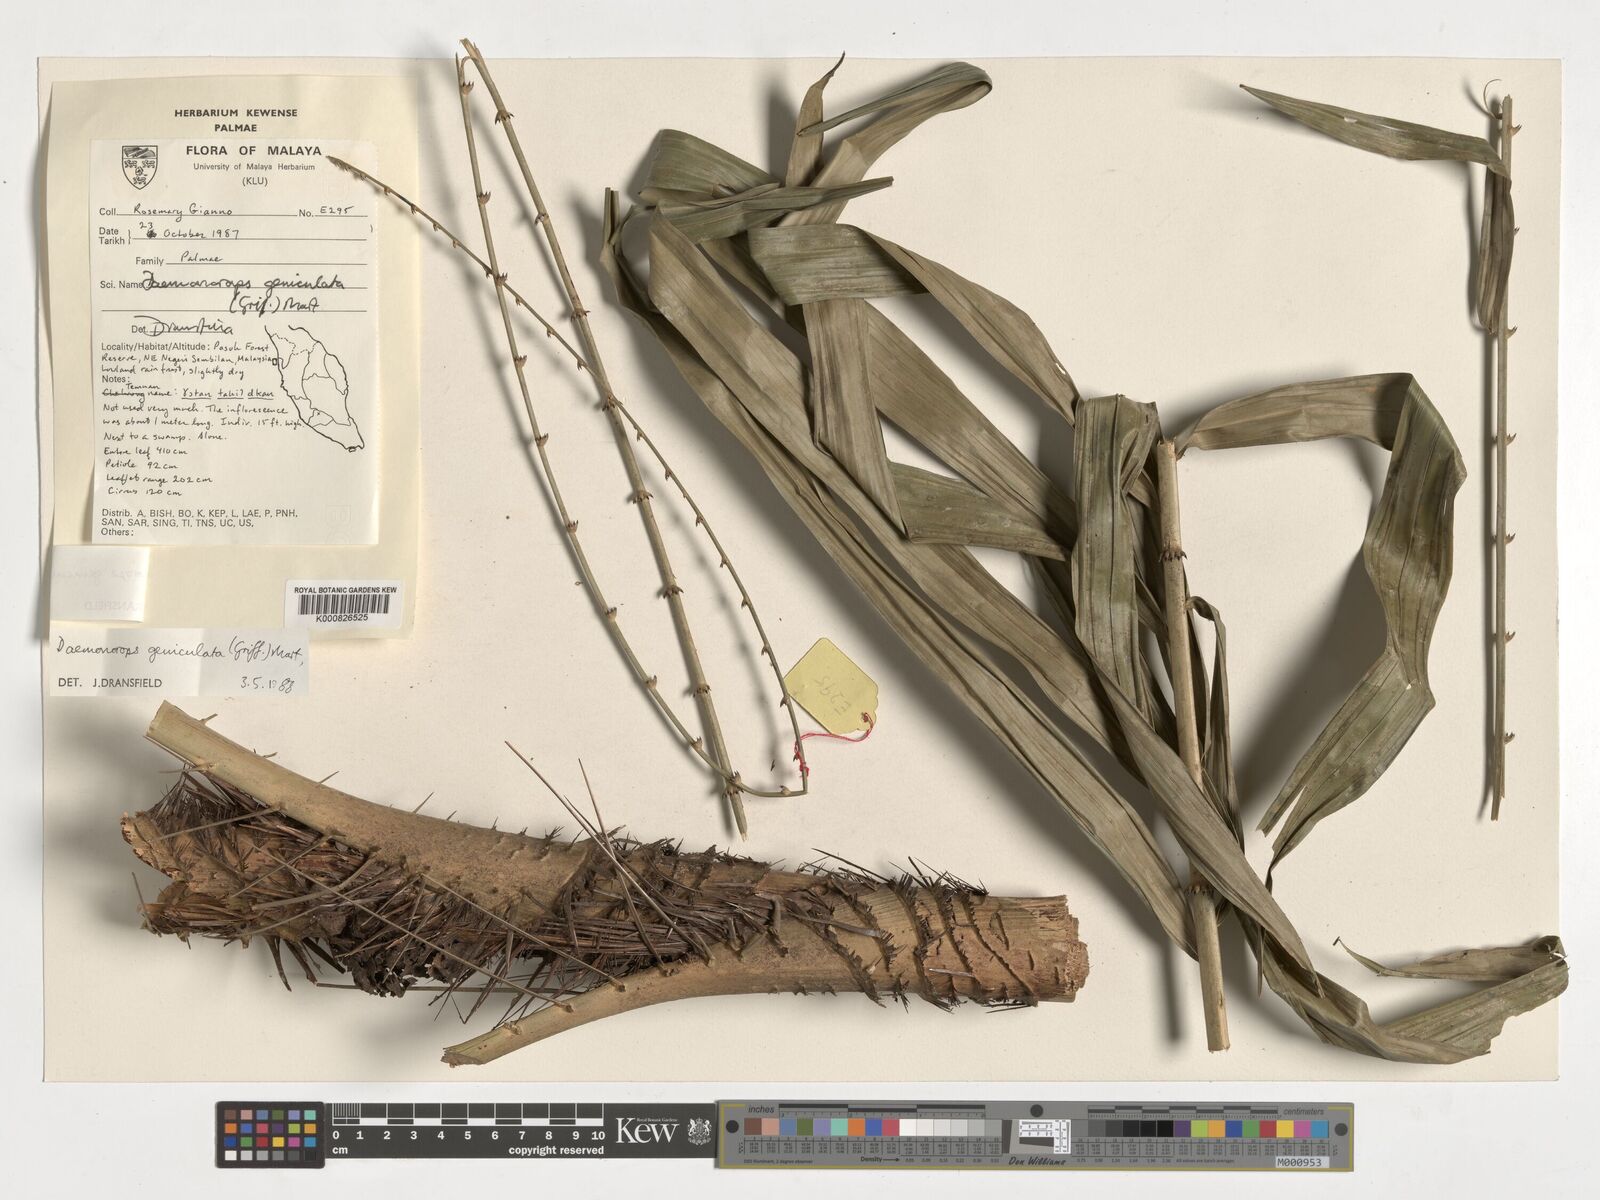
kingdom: Plantae
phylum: Tracheophyta
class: Liliopsida
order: Arecales
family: Arecaceae
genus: Calamus
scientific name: Calamus geniculatus
